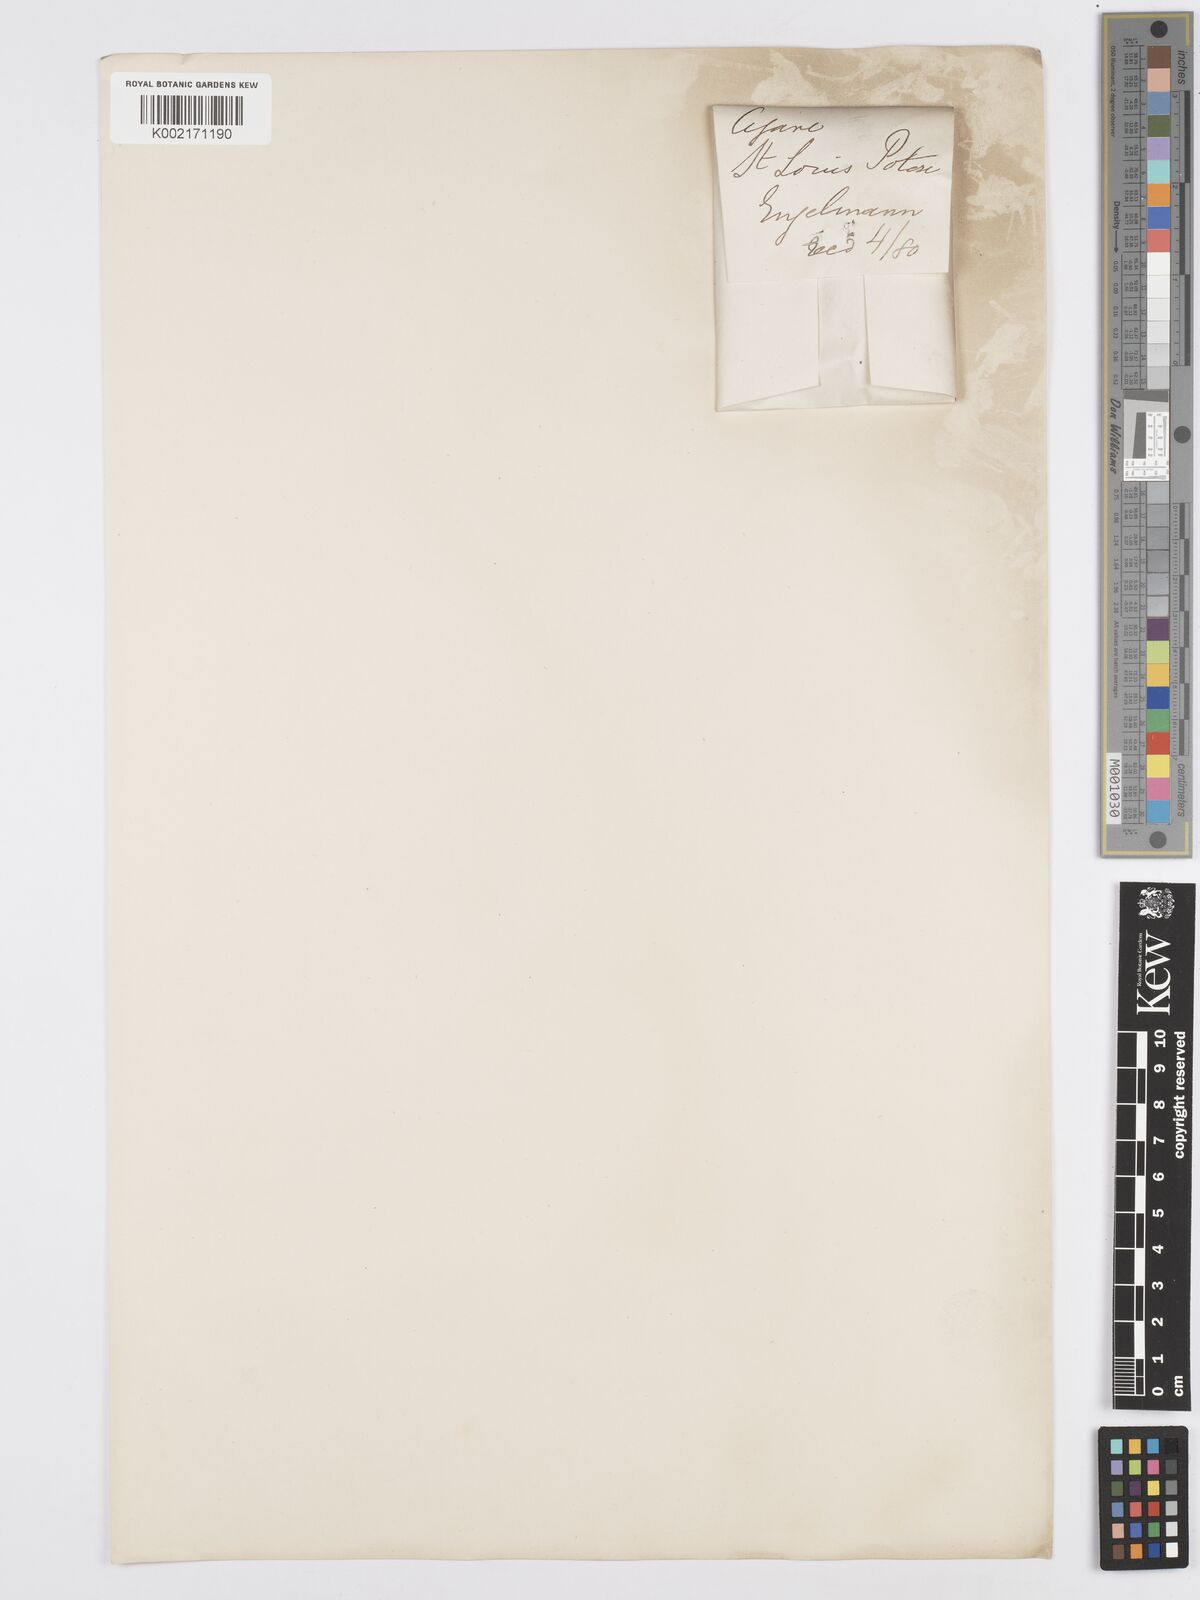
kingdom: Plantae
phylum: Tracheophyta
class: Liliopsida
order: Asparagales
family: Asparagaceae
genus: Agave
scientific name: Agave
